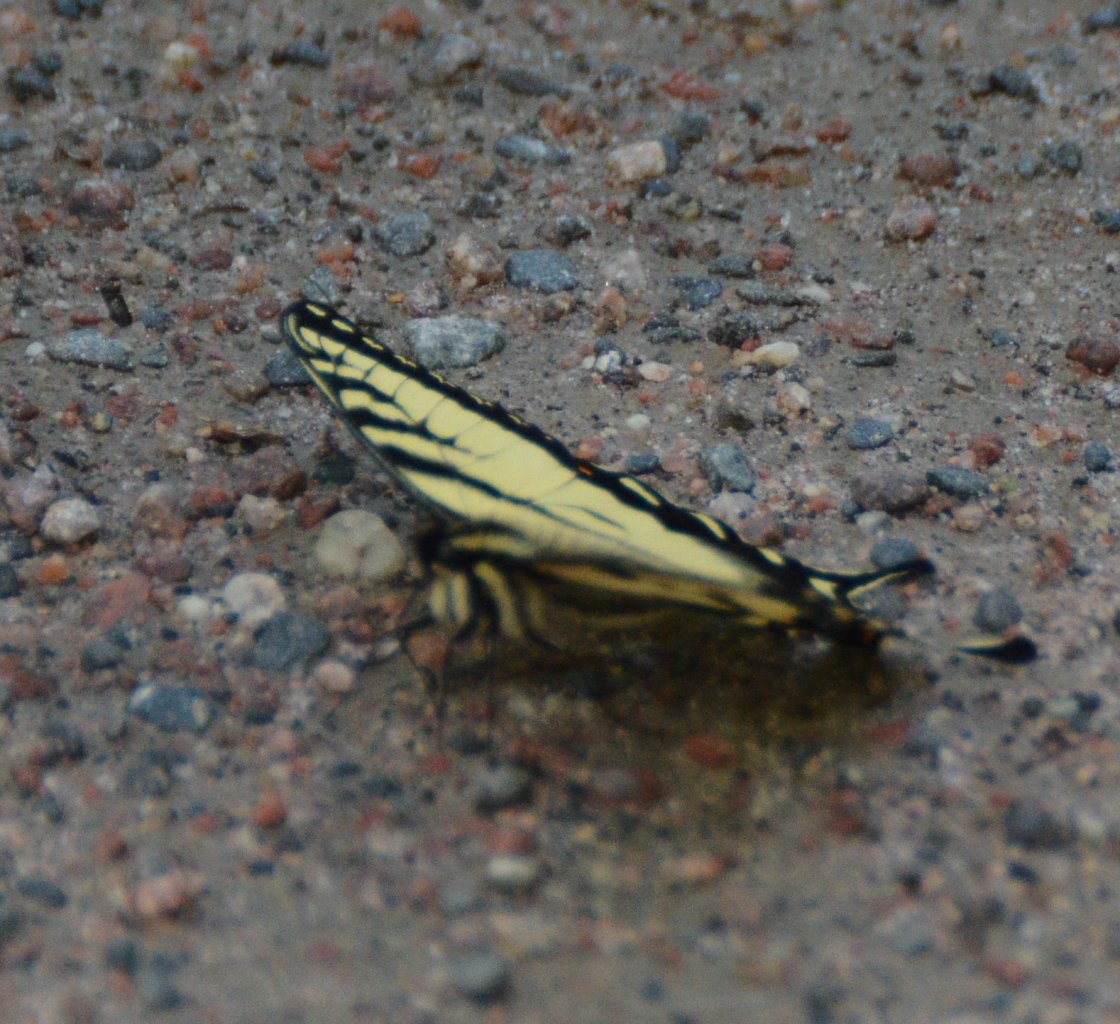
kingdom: Animalia
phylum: Arthropoda
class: Insecta
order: Lepidoptera
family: Papilionidae
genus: Pterourus
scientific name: Pterourus canadensis
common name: Canadian Tiger Swallowtail
